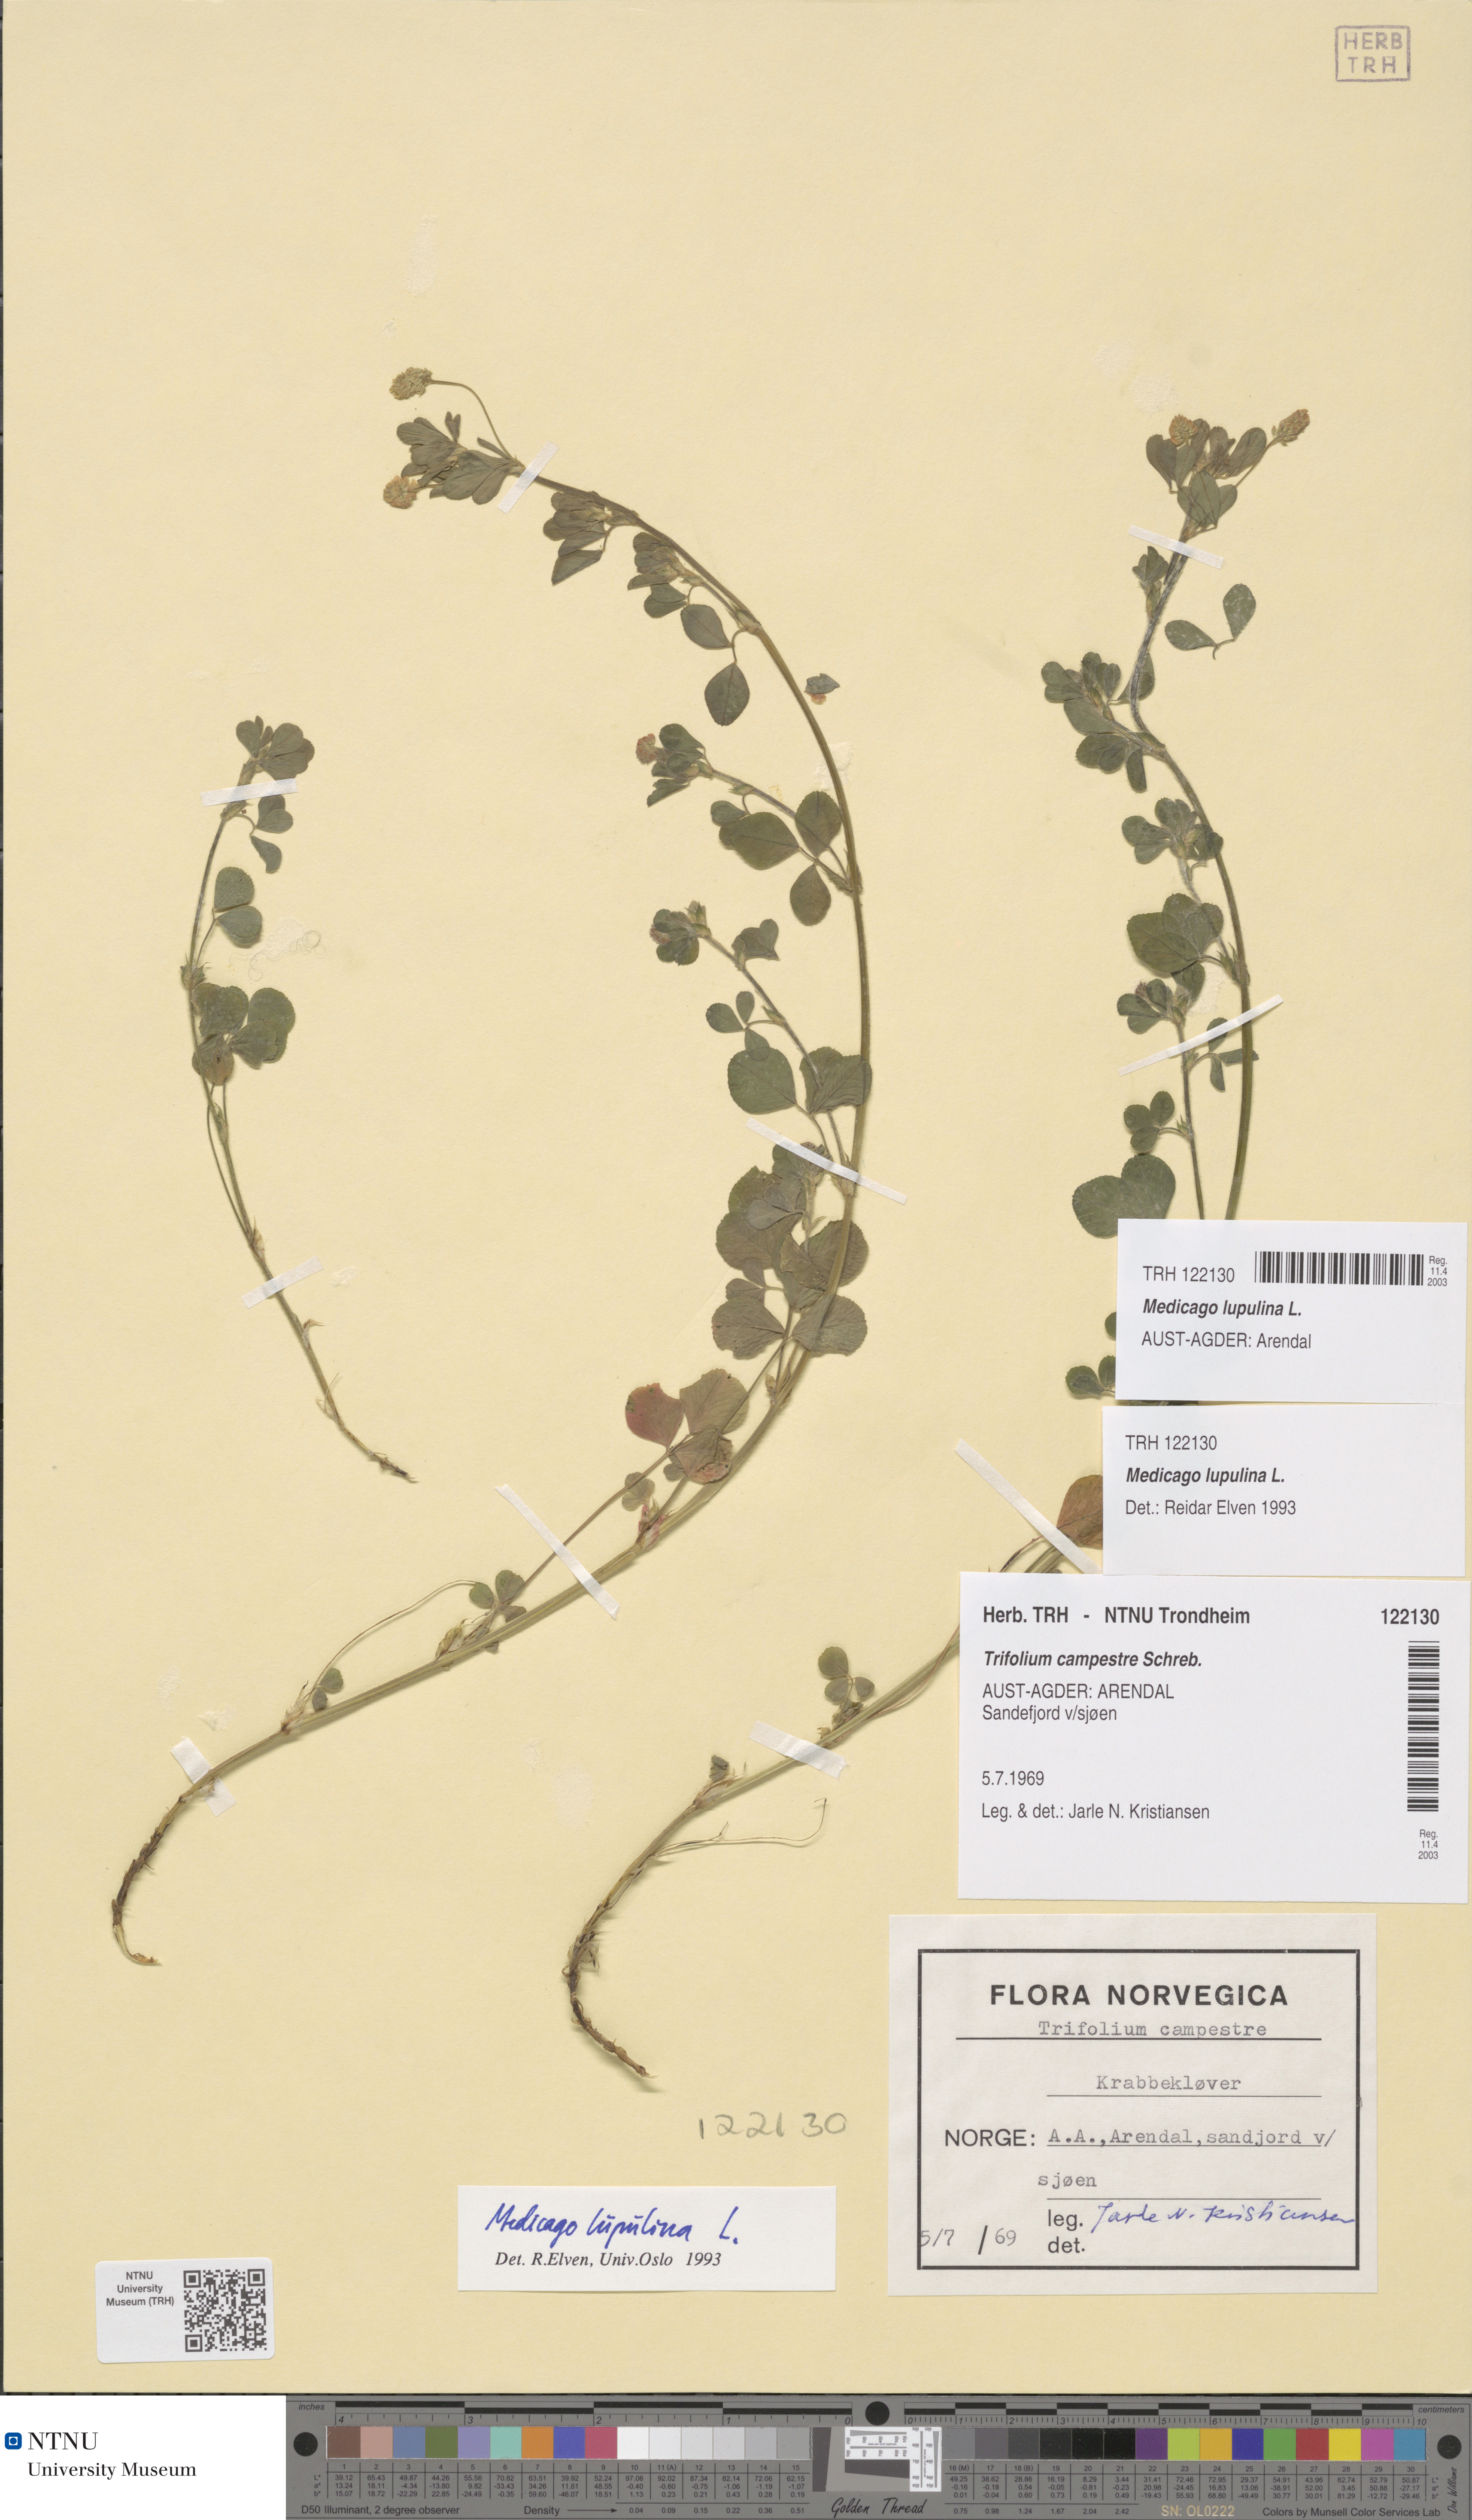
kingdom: Plantae
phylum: Tracheophyta
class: Magnoliopsida
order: Fabales
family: Fabaceae
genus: Medicago
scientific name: Medicago lupulina
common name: Black medick
